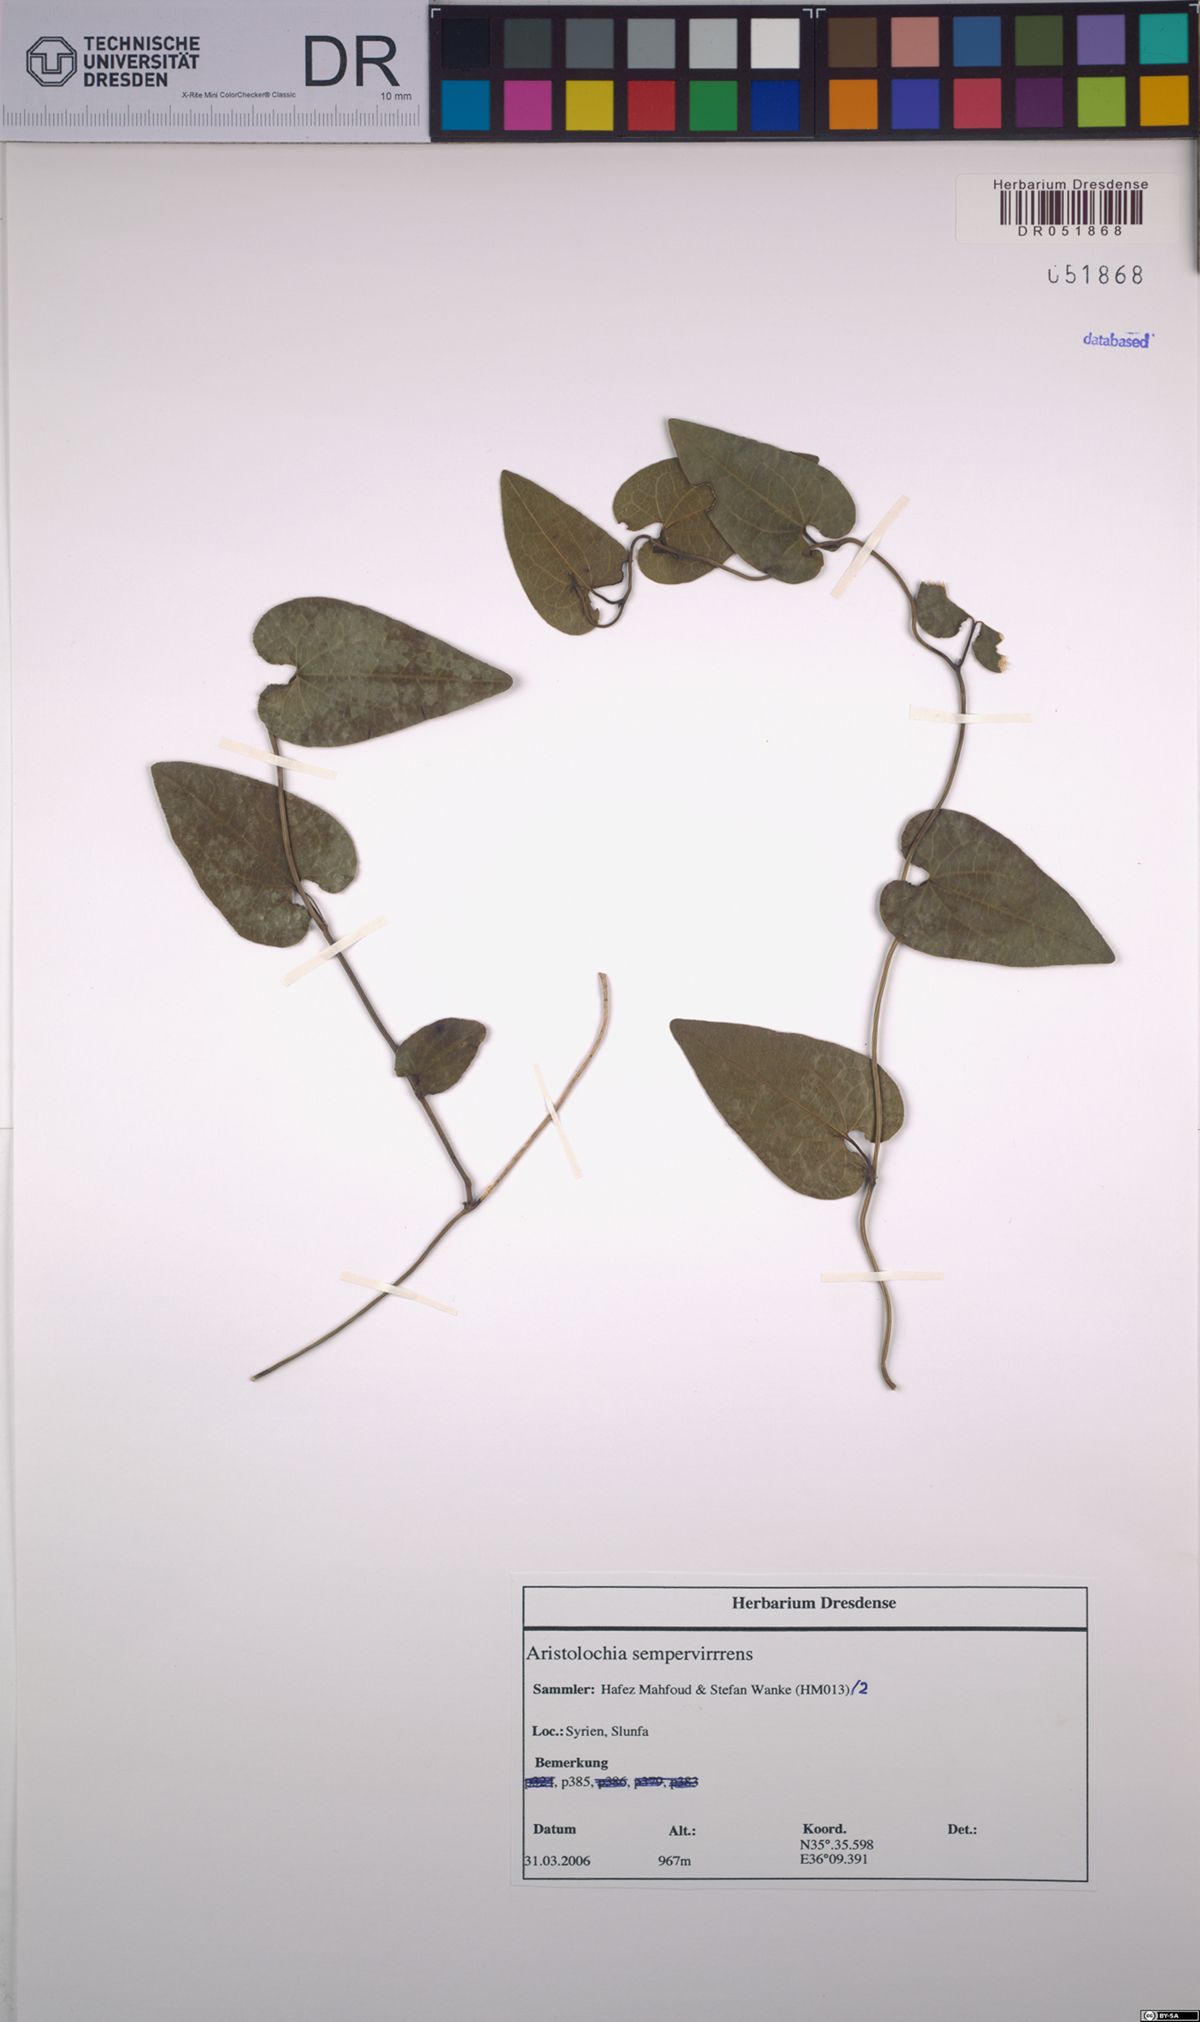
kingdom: Plantae
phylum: Tracheophyta
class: Magnoliopsida
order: Piperales
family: Aristolochiaceae
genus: Aristolochia
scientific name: Aristolochia sempervirens
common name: Long birthwort
